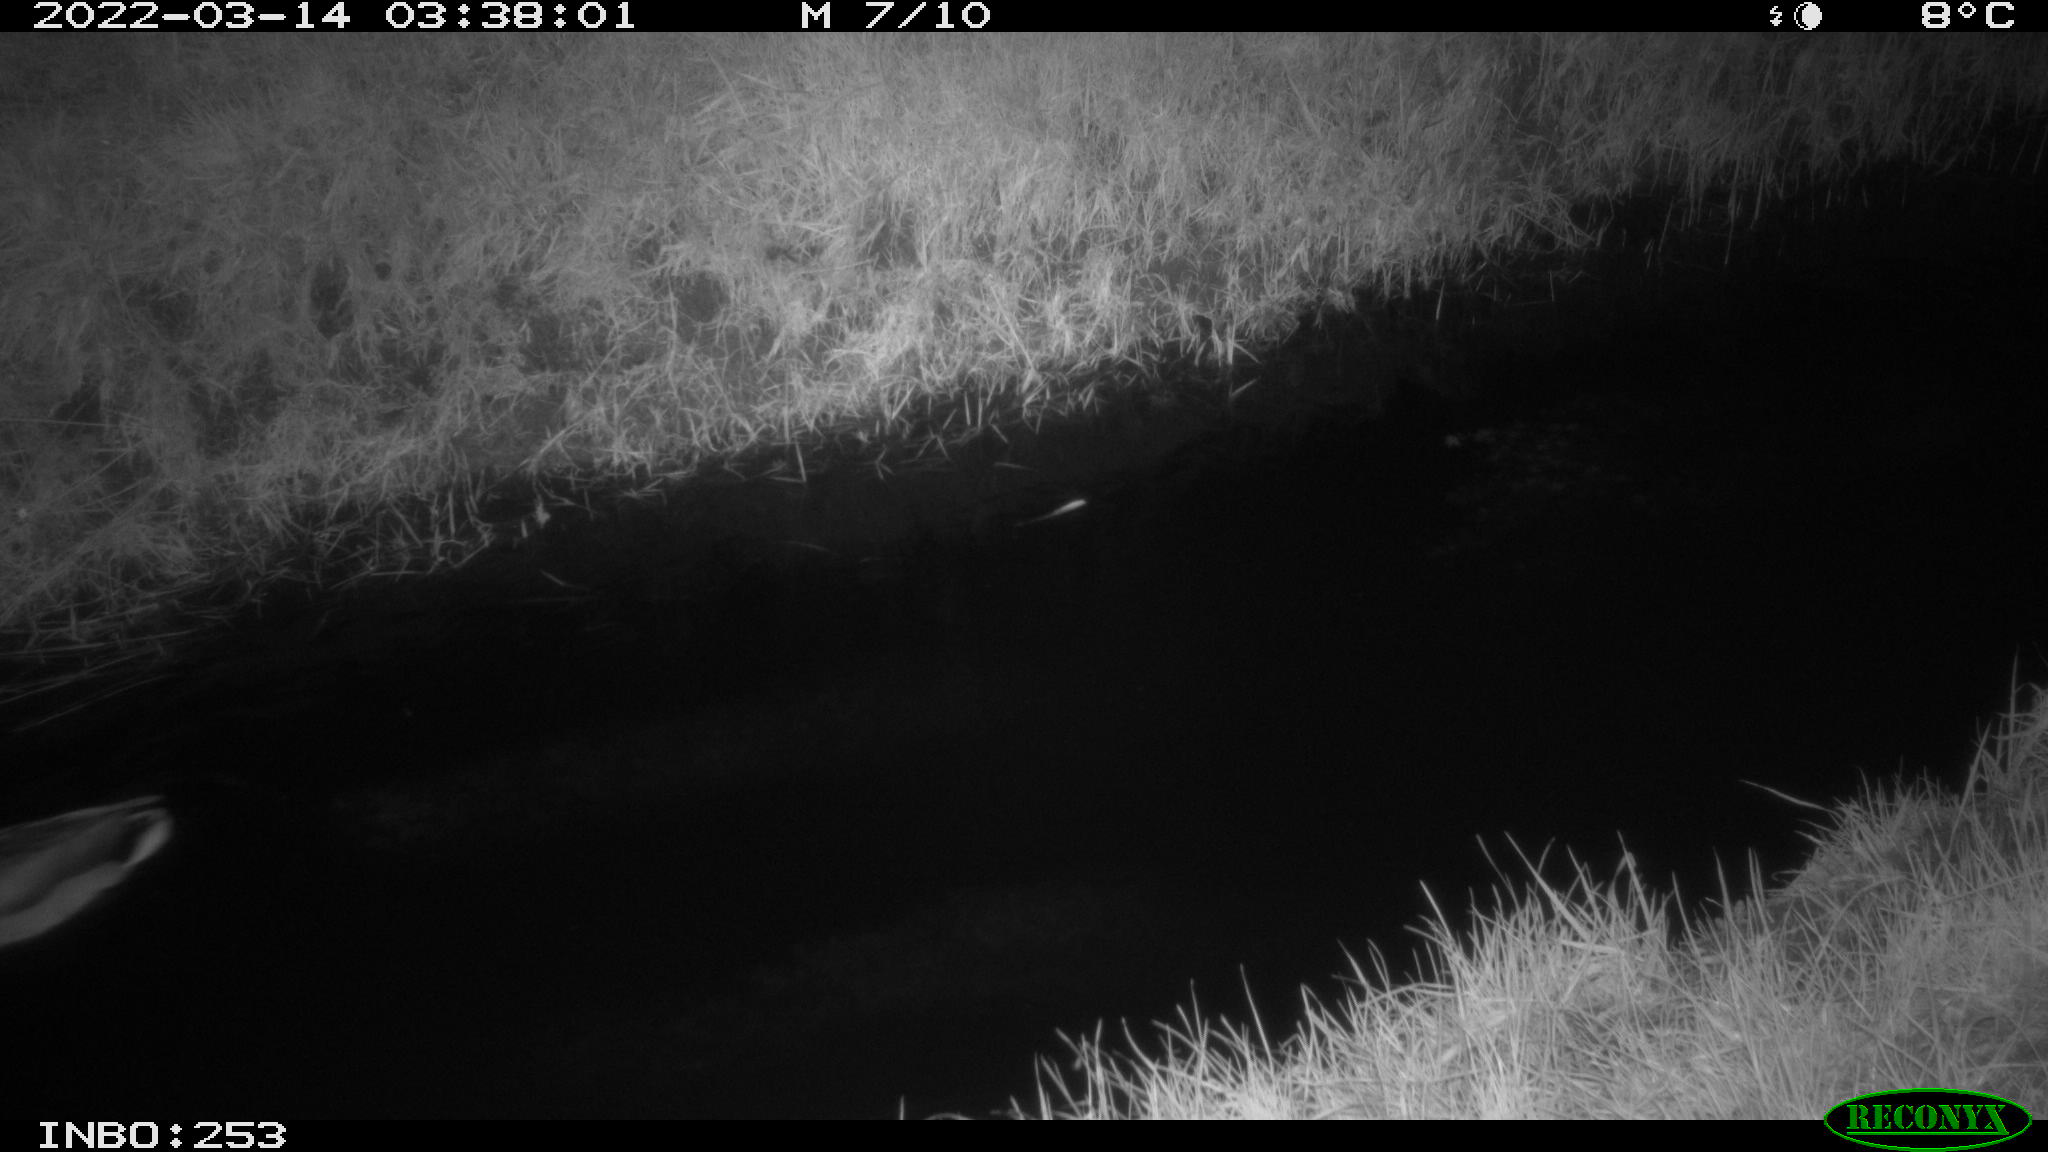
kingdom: Animalia
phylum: Chordata
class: Aves
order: Anseriformes
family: Anatidae
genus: Anas
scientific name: Anas platyrhynchos
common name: Mallard
